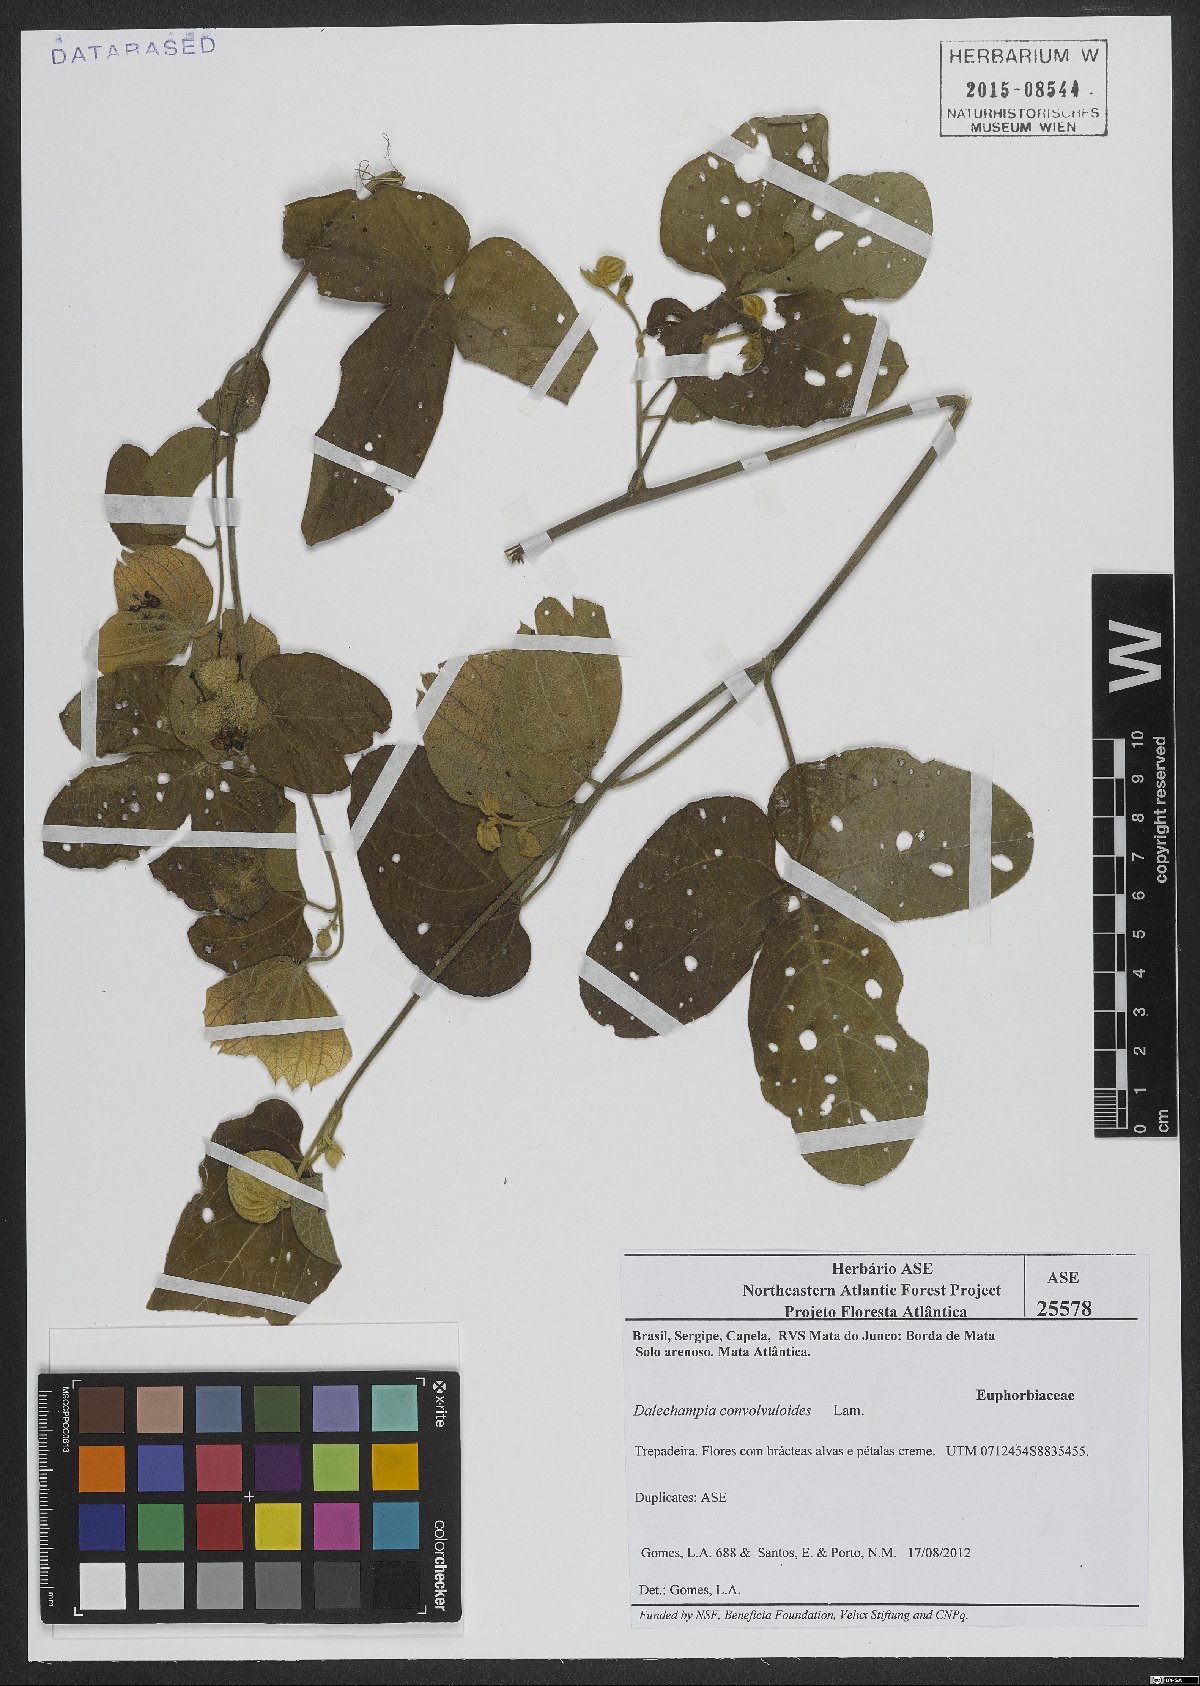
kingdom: Plantae
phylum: Tracheophyta
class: Magnoliopsida
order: Malpighiales
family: Euphorbiaceae
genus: Dalechampia
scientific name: Dalechampia convolvuloides
